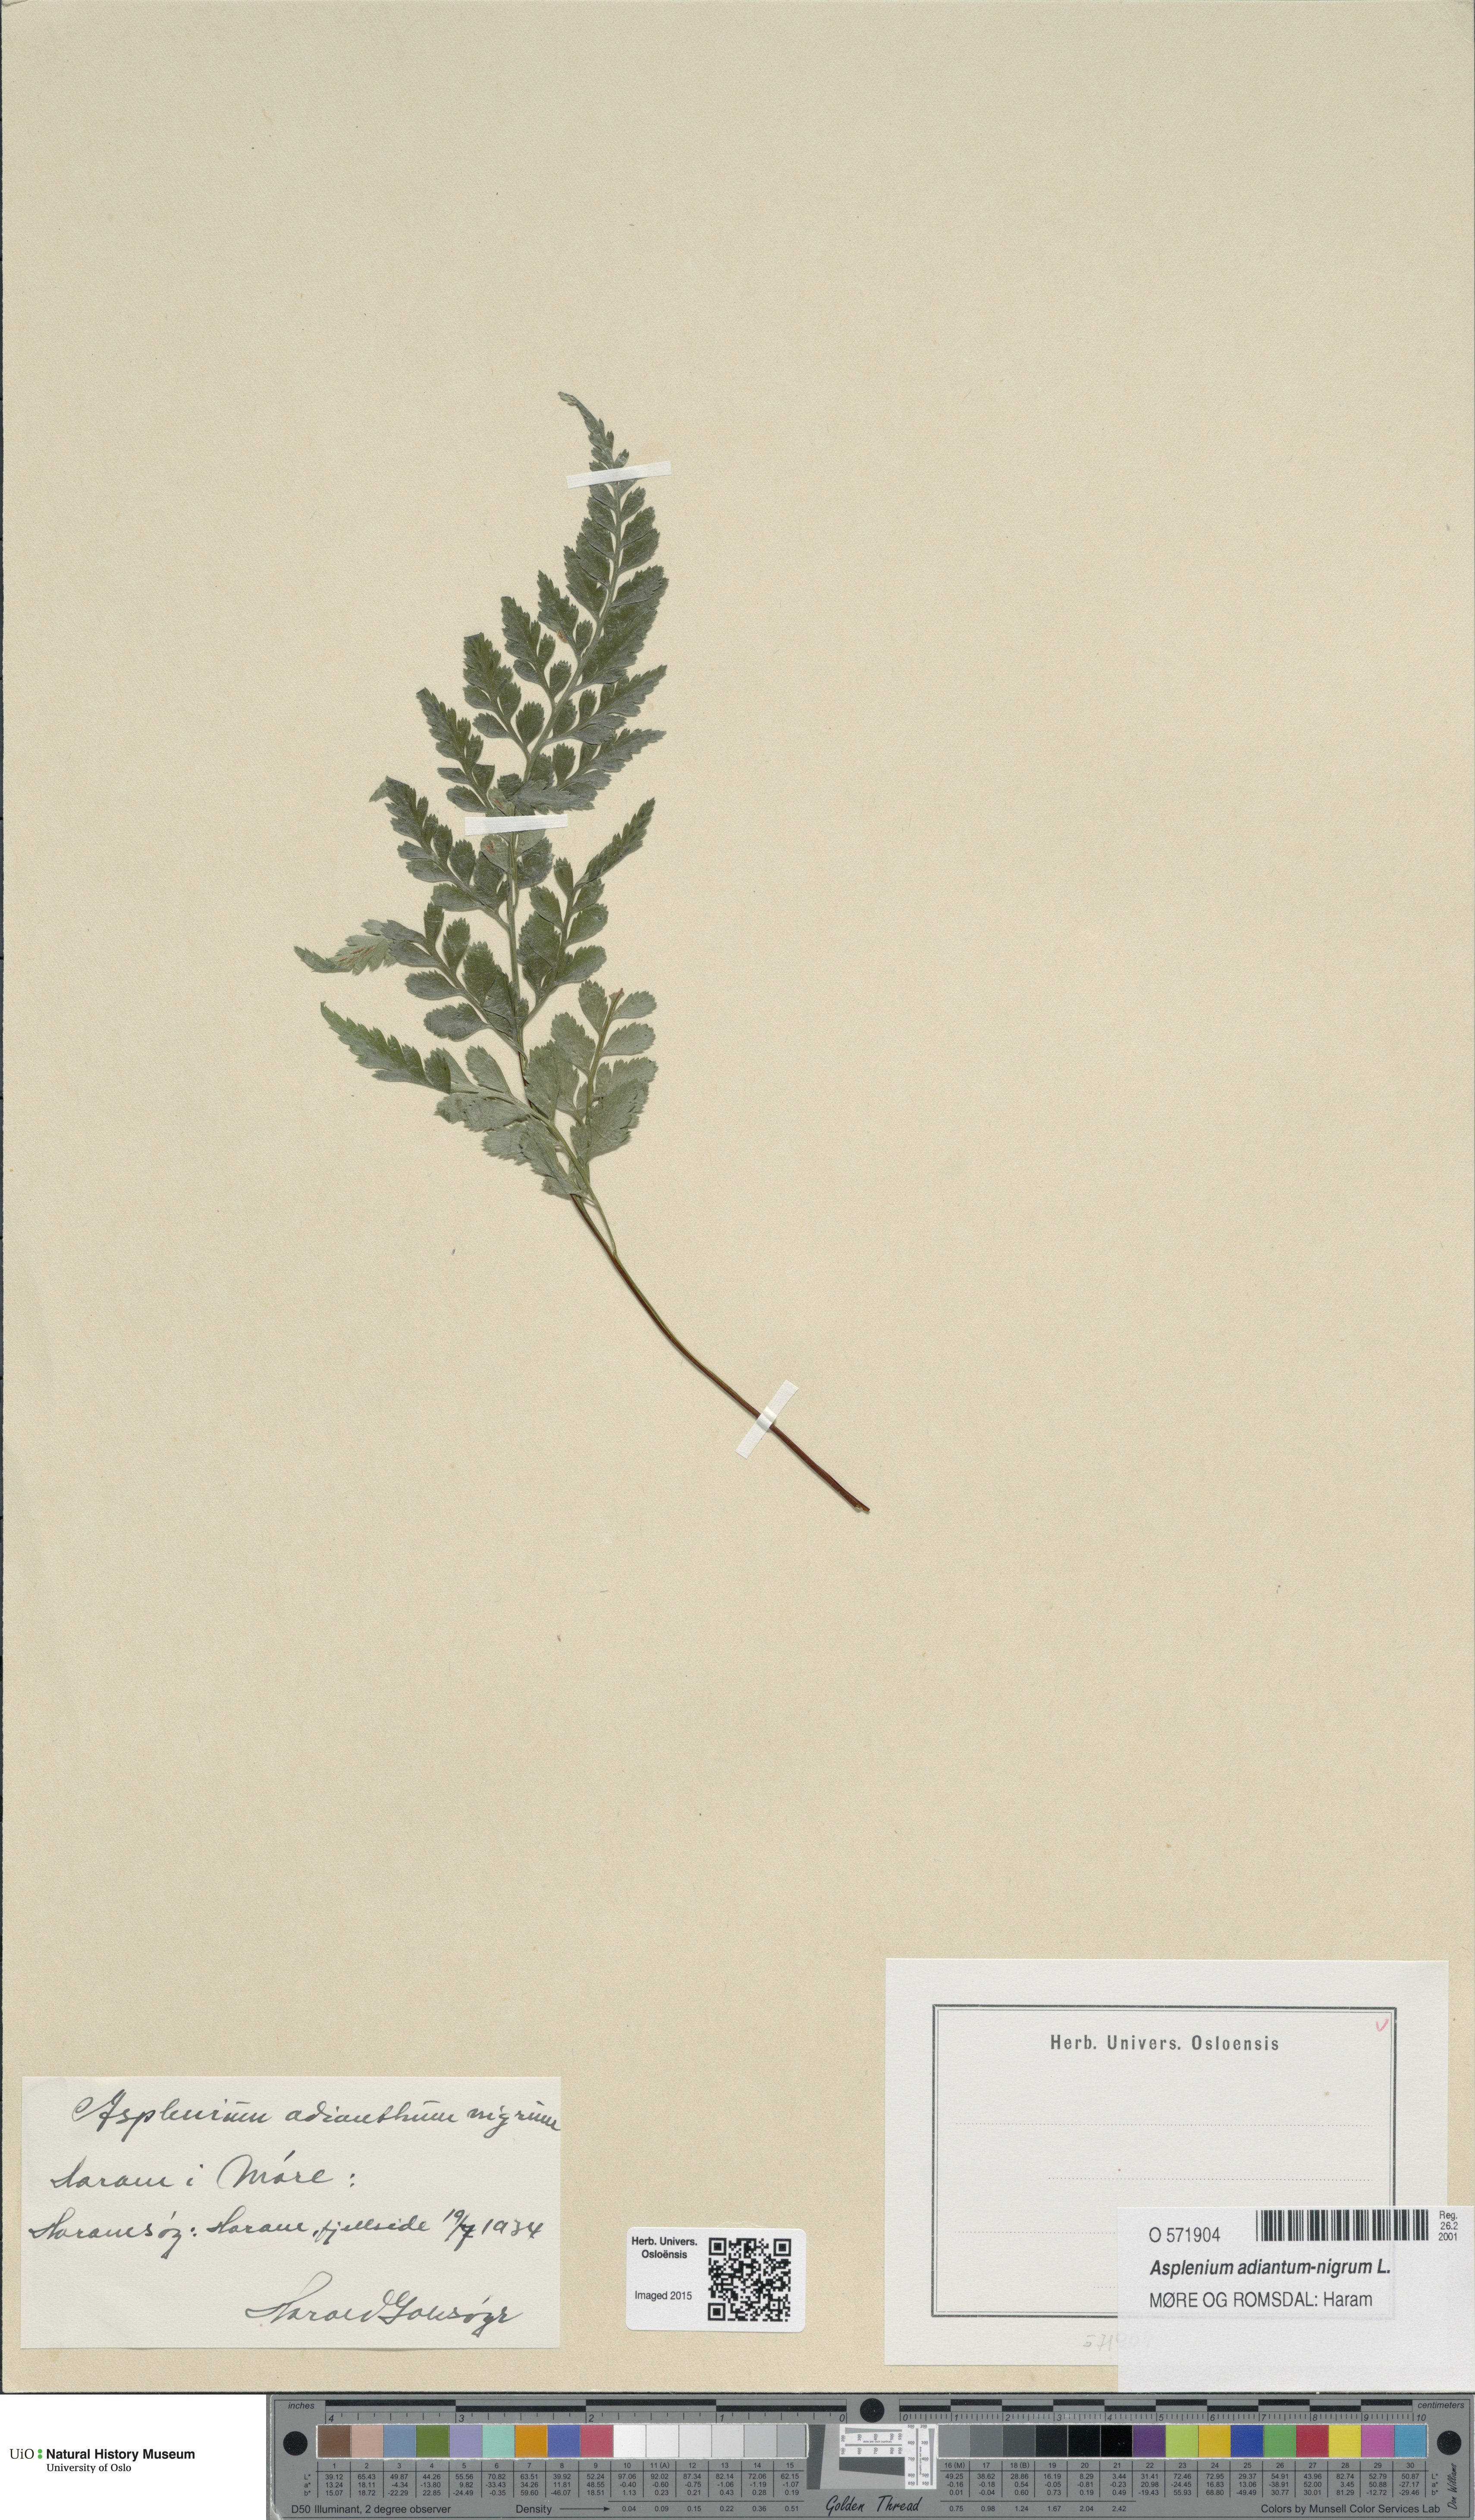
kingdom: Plantae
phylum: Tracheophyta
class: Polypodiopsida
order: Polypodiales
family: Aspleniaceae
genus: Asplenium
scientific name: Asplenium adiantum-nigrum
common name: Black spleenwort
